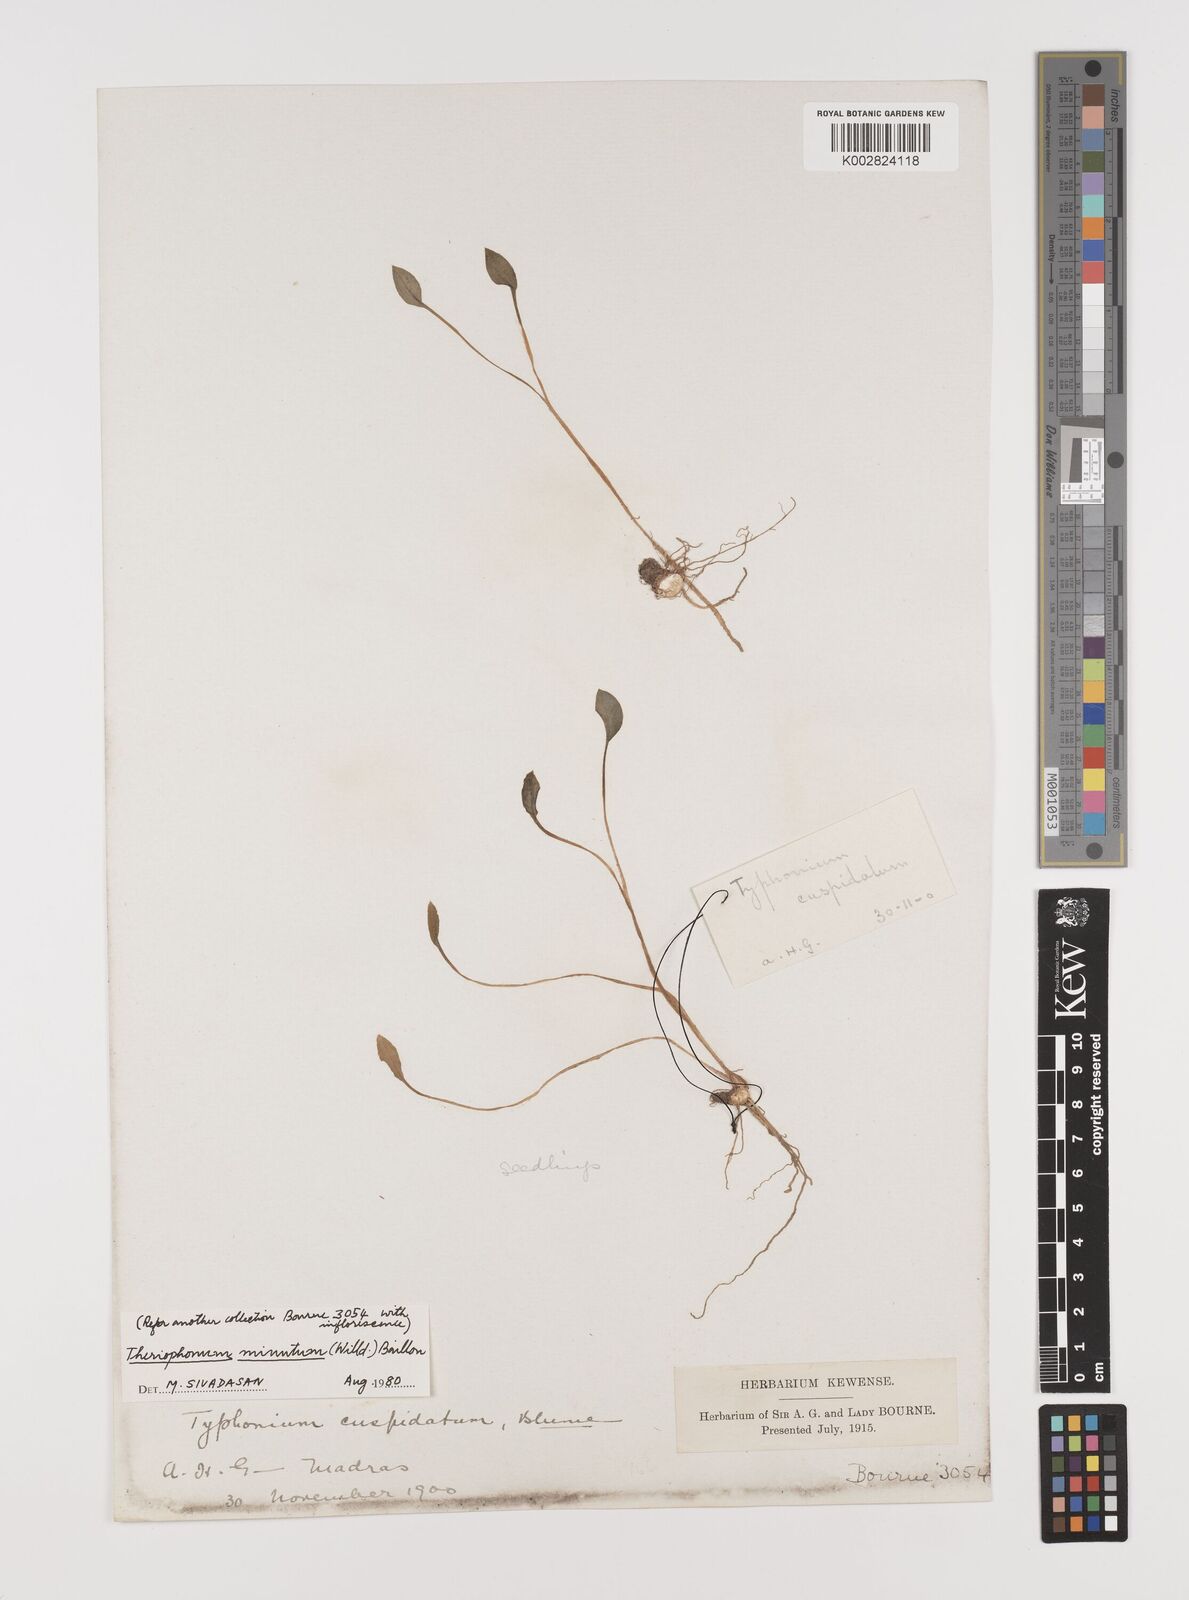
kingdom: Plantae
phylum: Tracheophyta
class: Liliopsida
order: Alismatales
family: Araceae
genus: Theriophonum
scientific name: Theriophonum minutum
